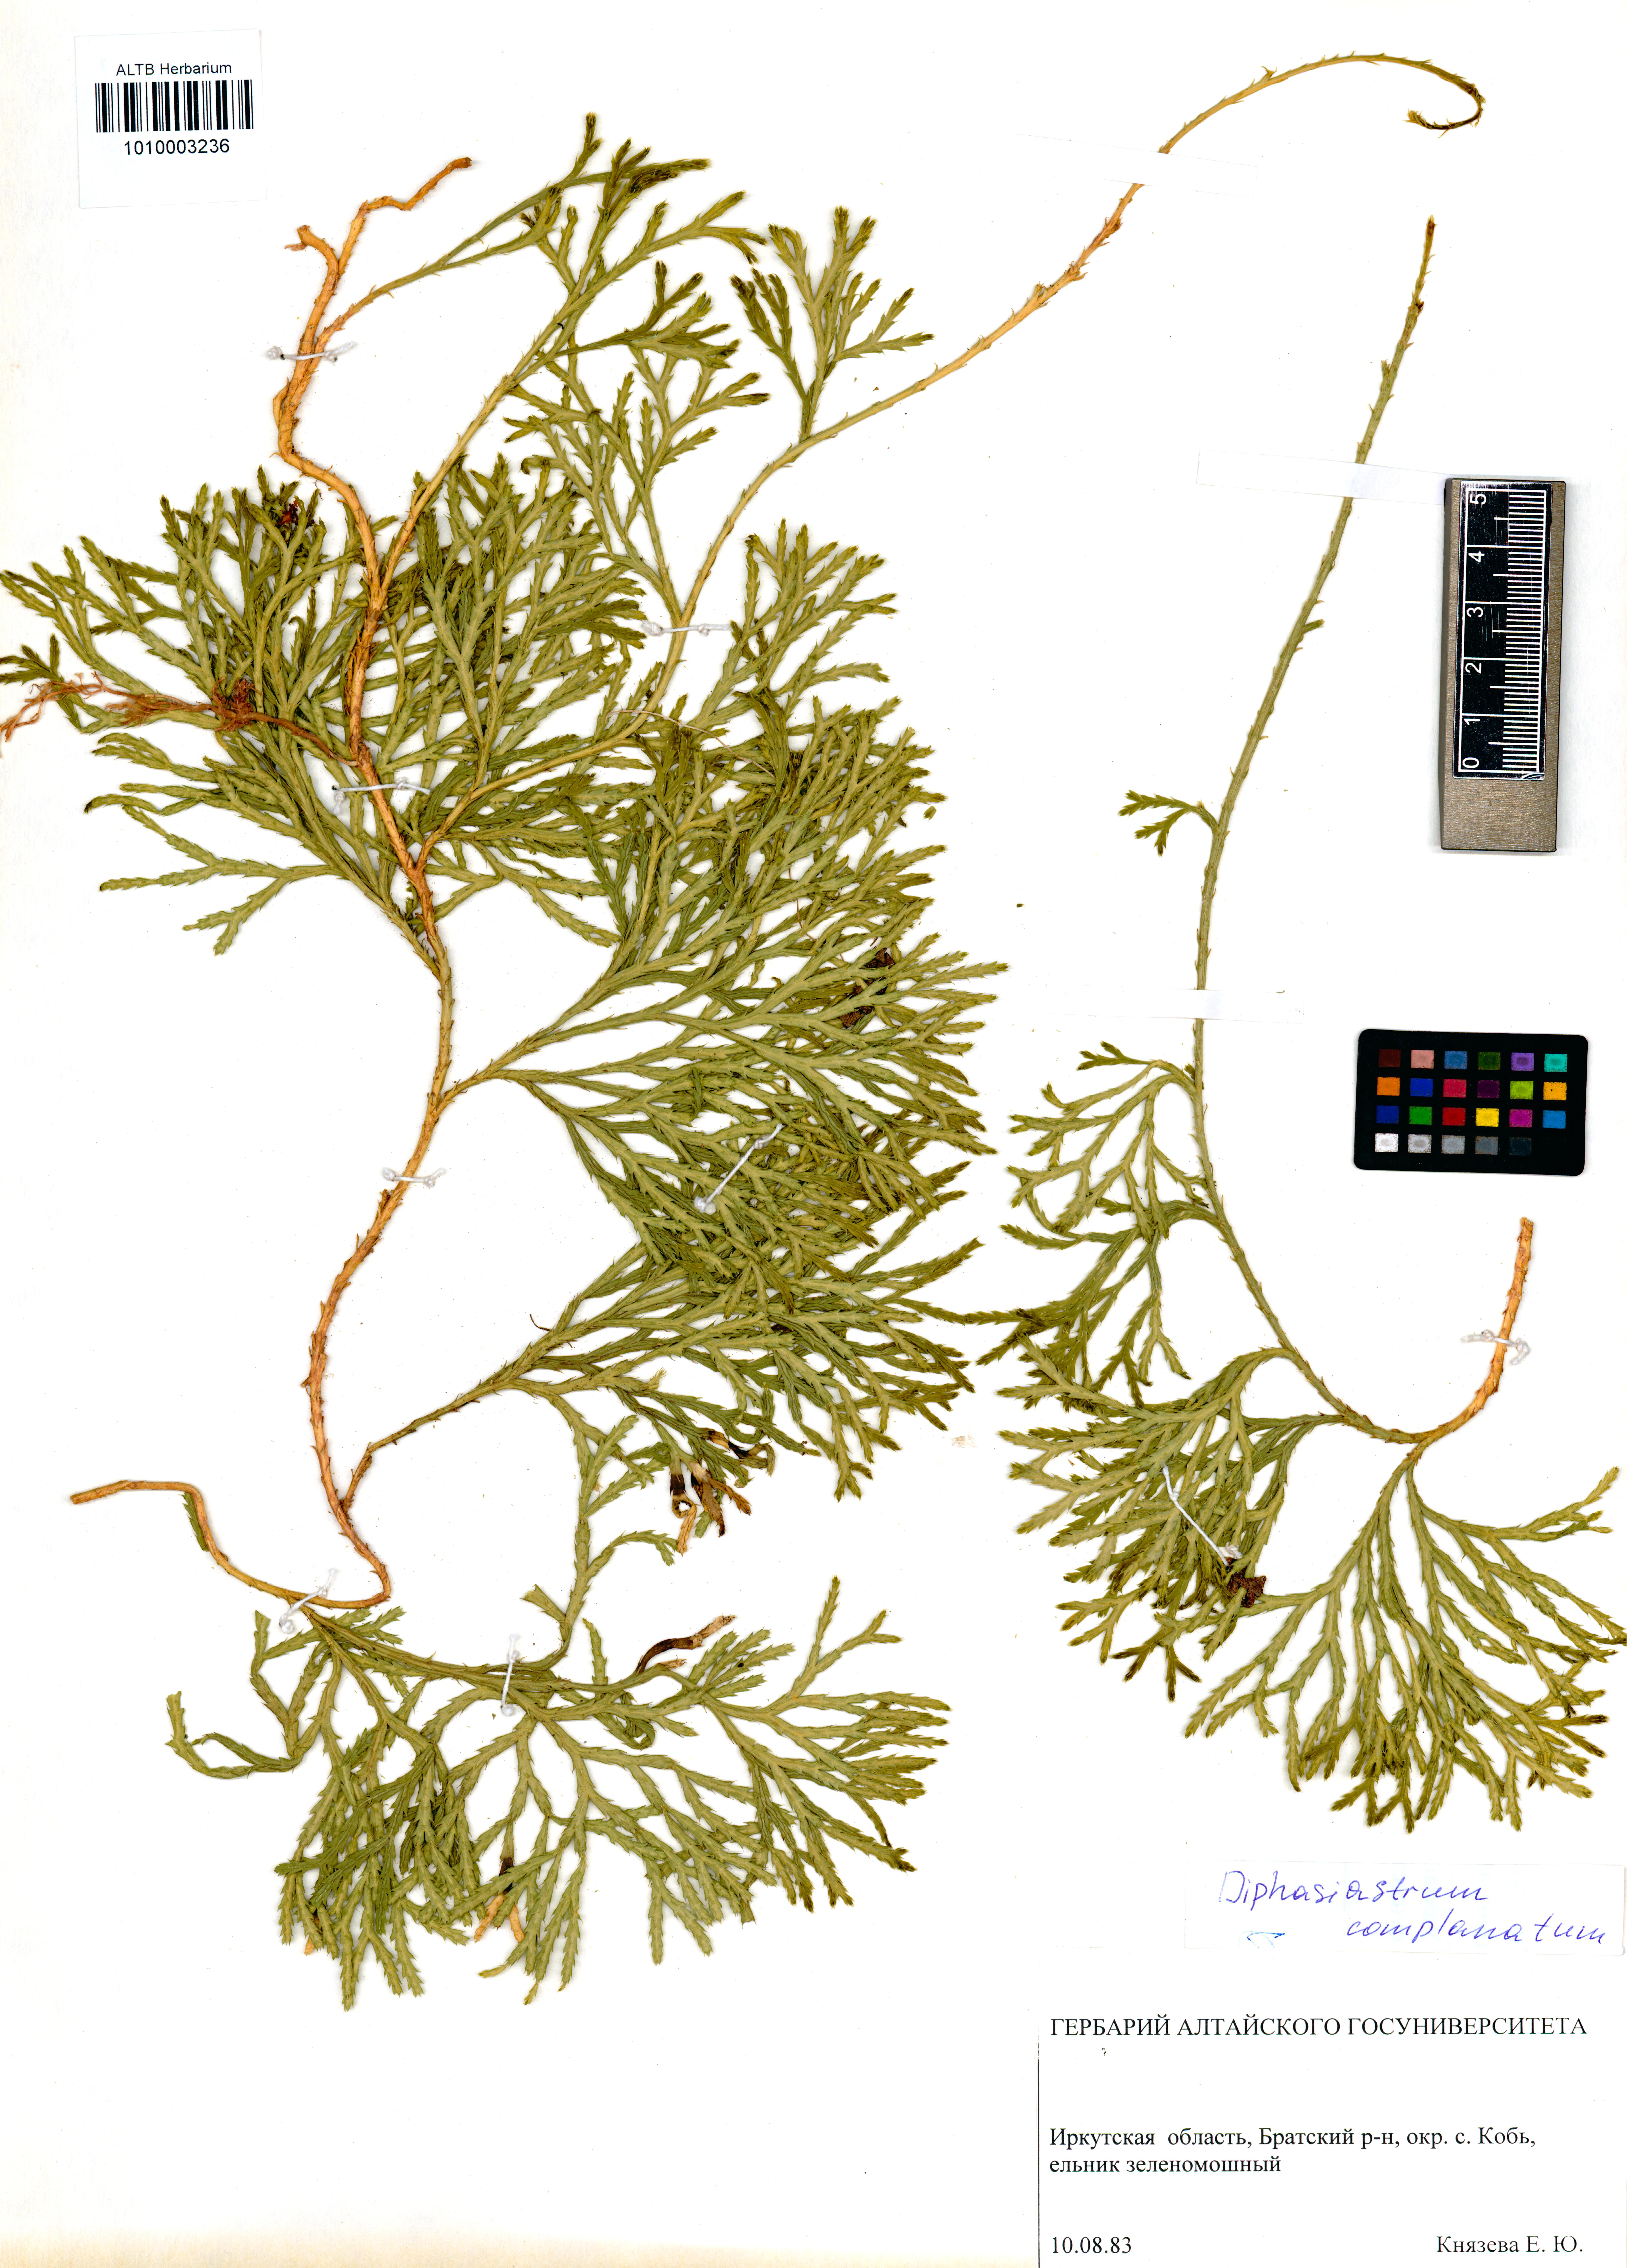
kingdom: Plantae
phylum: Tracheophyta
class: Lycopodiopsida
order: Lycopodiales
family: Lycopodiaceae
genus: Diphasiastrum
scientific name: Diphasiastrum complanatum
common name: Northern running-pine
